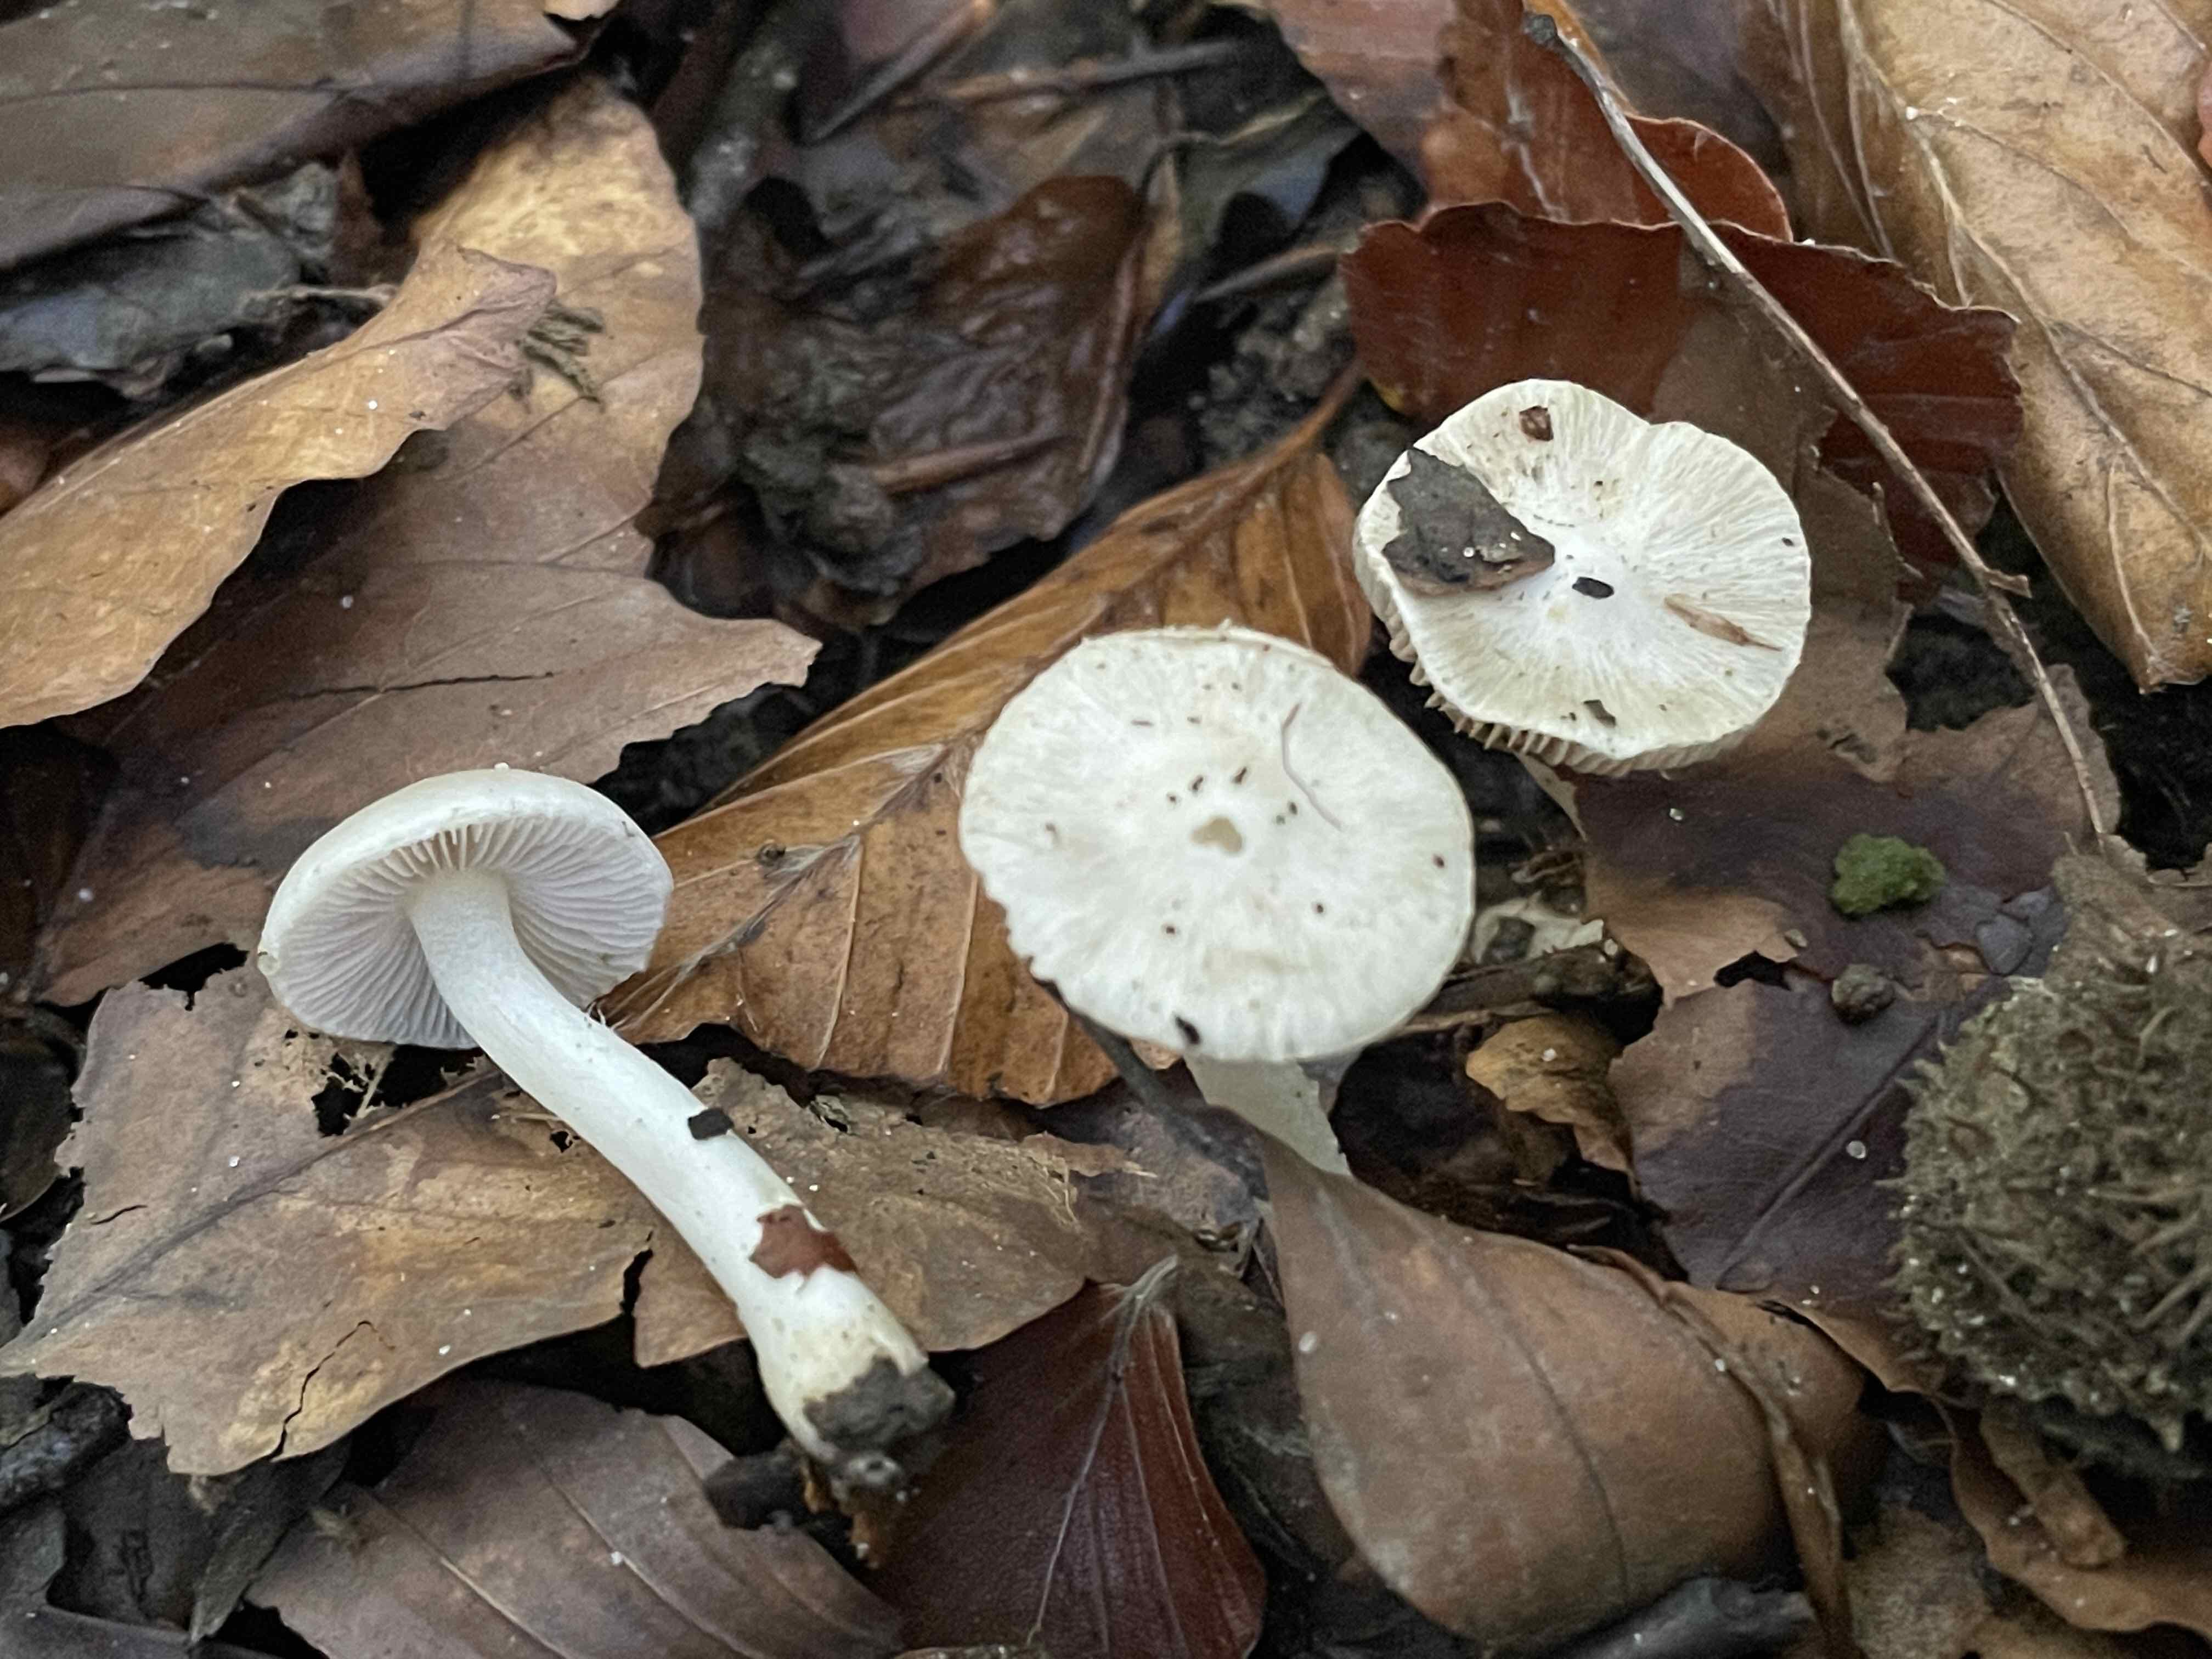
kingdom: Fungi
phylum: Basidiomycota
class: Agaricomycetes
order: Agaricales
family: Inocybaceae
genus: Inocybe
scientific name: Inocybe
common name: almindelig trævlhat
